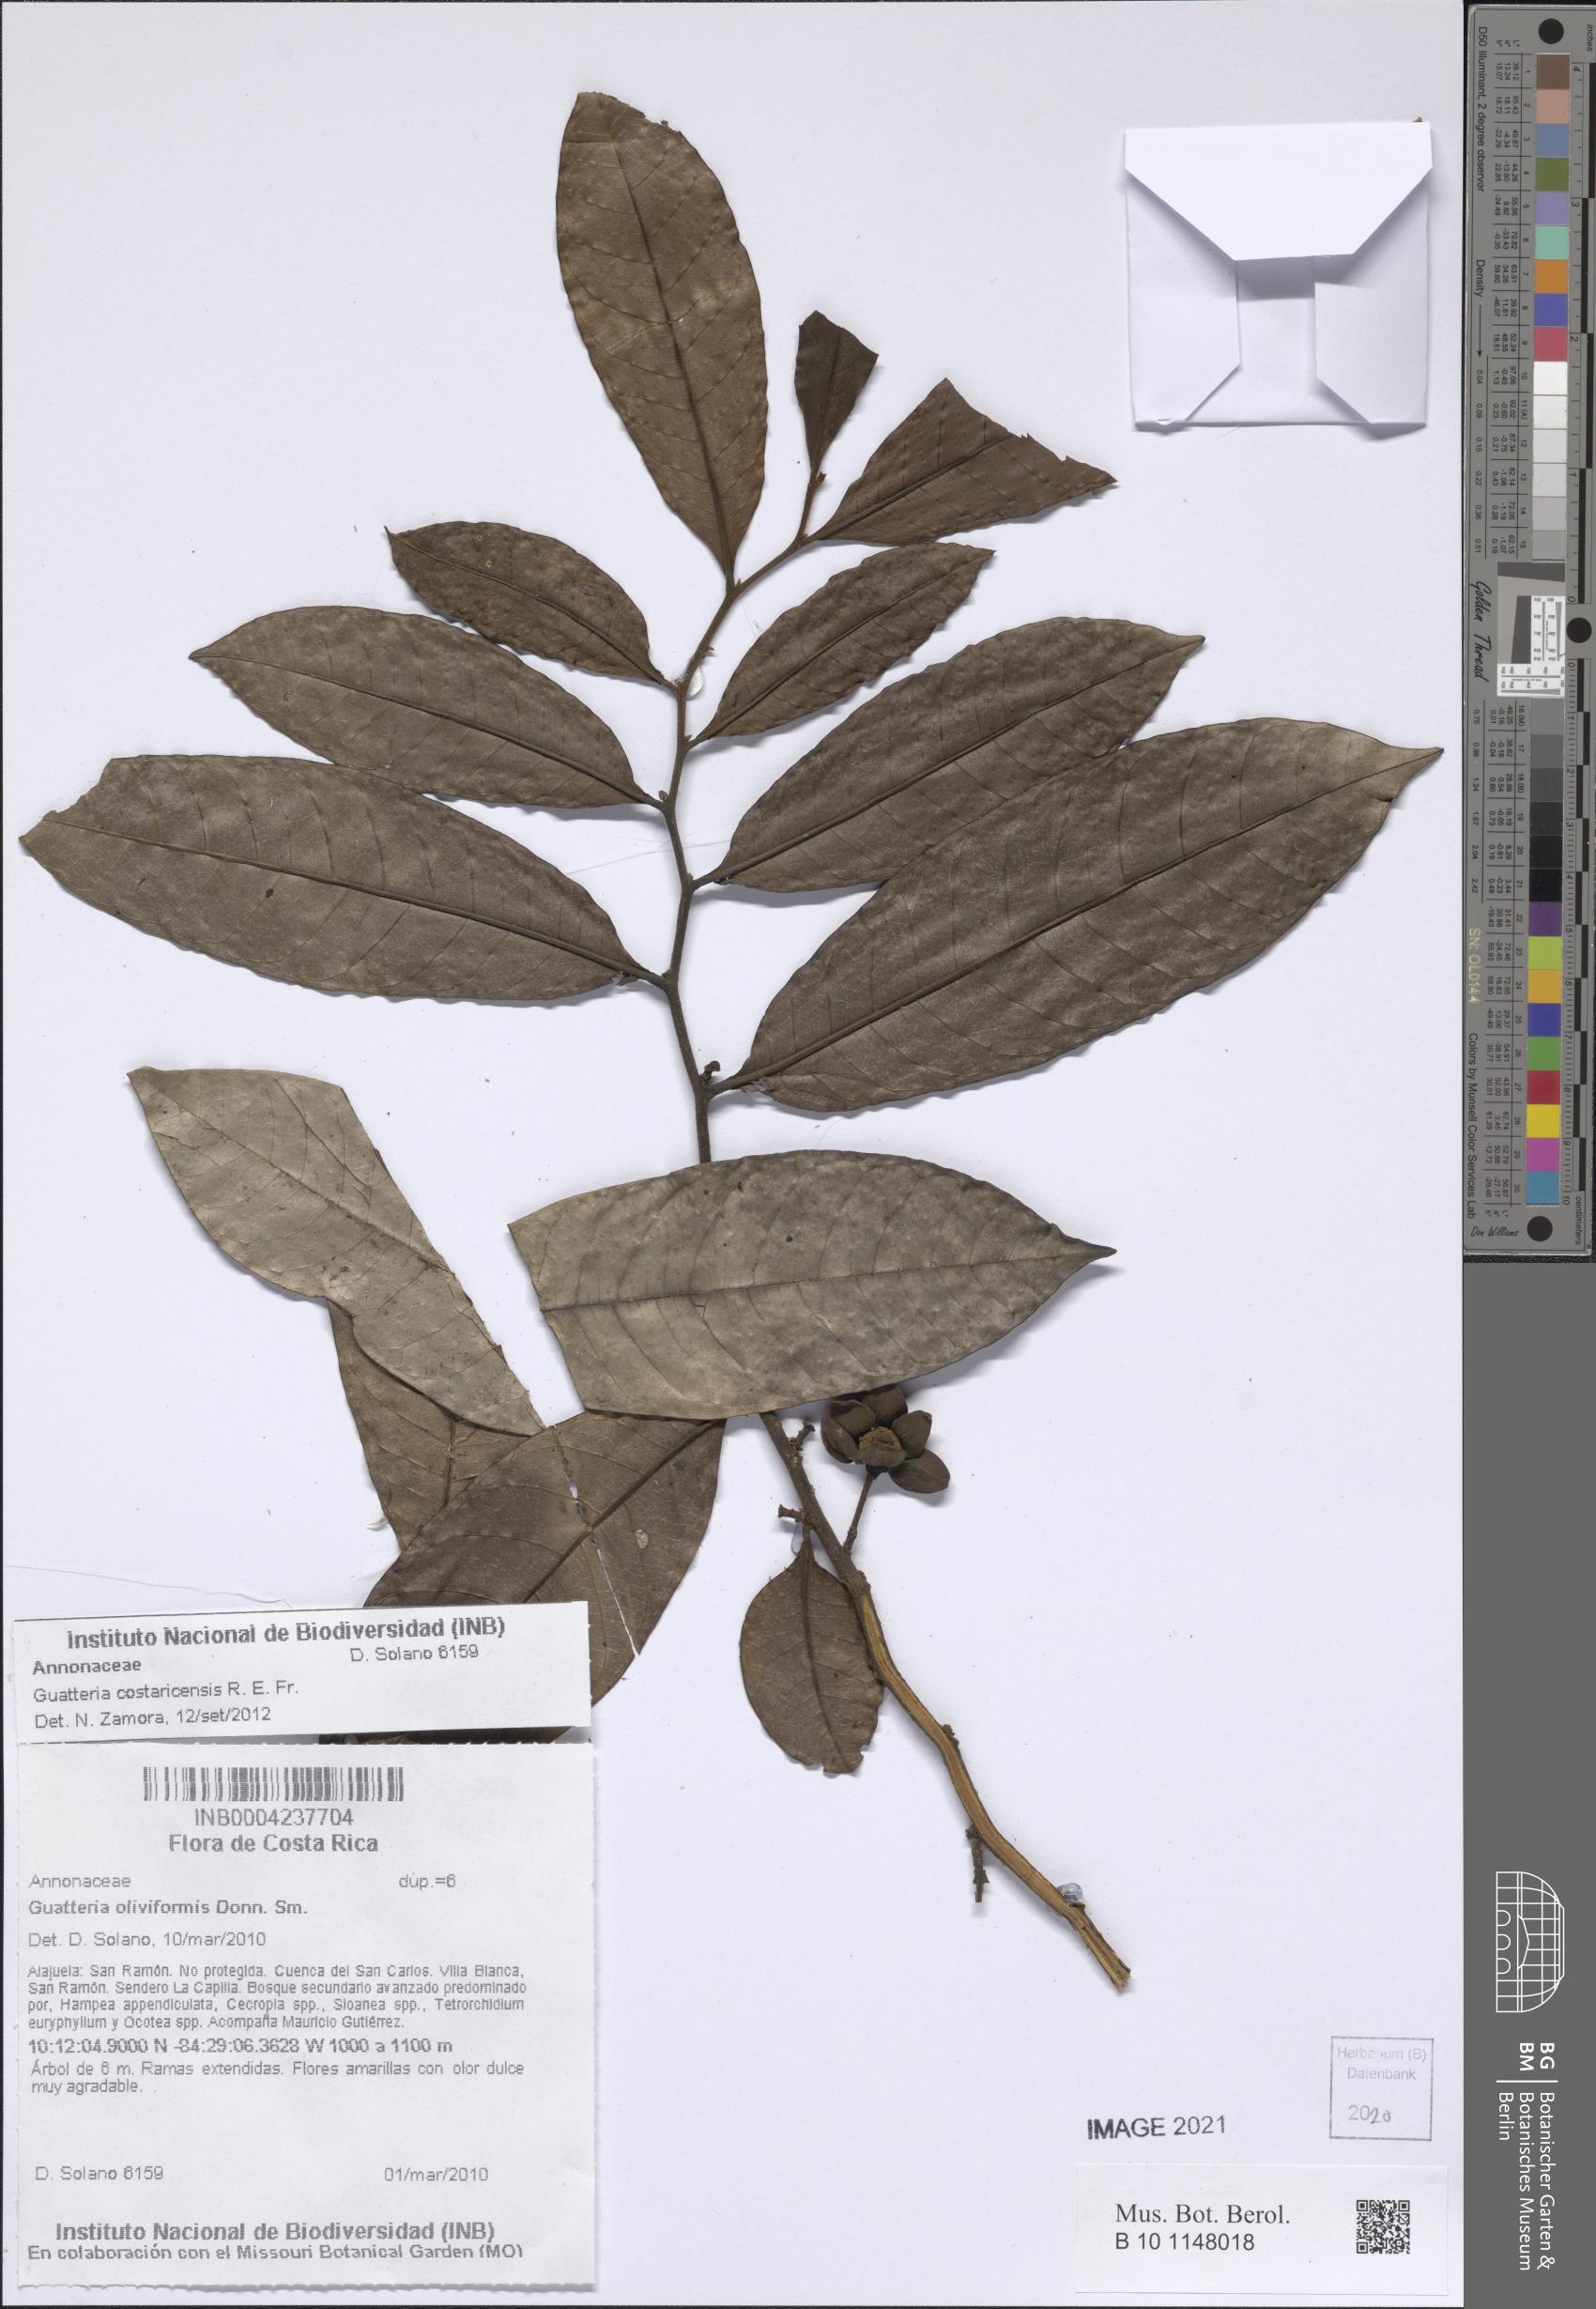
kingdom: Plantae
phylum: Tracheophyta
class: Magnoliopsida
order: Magnoliales
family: Annonaceae
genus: Guatteria
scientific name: Guatteria costaricensis
